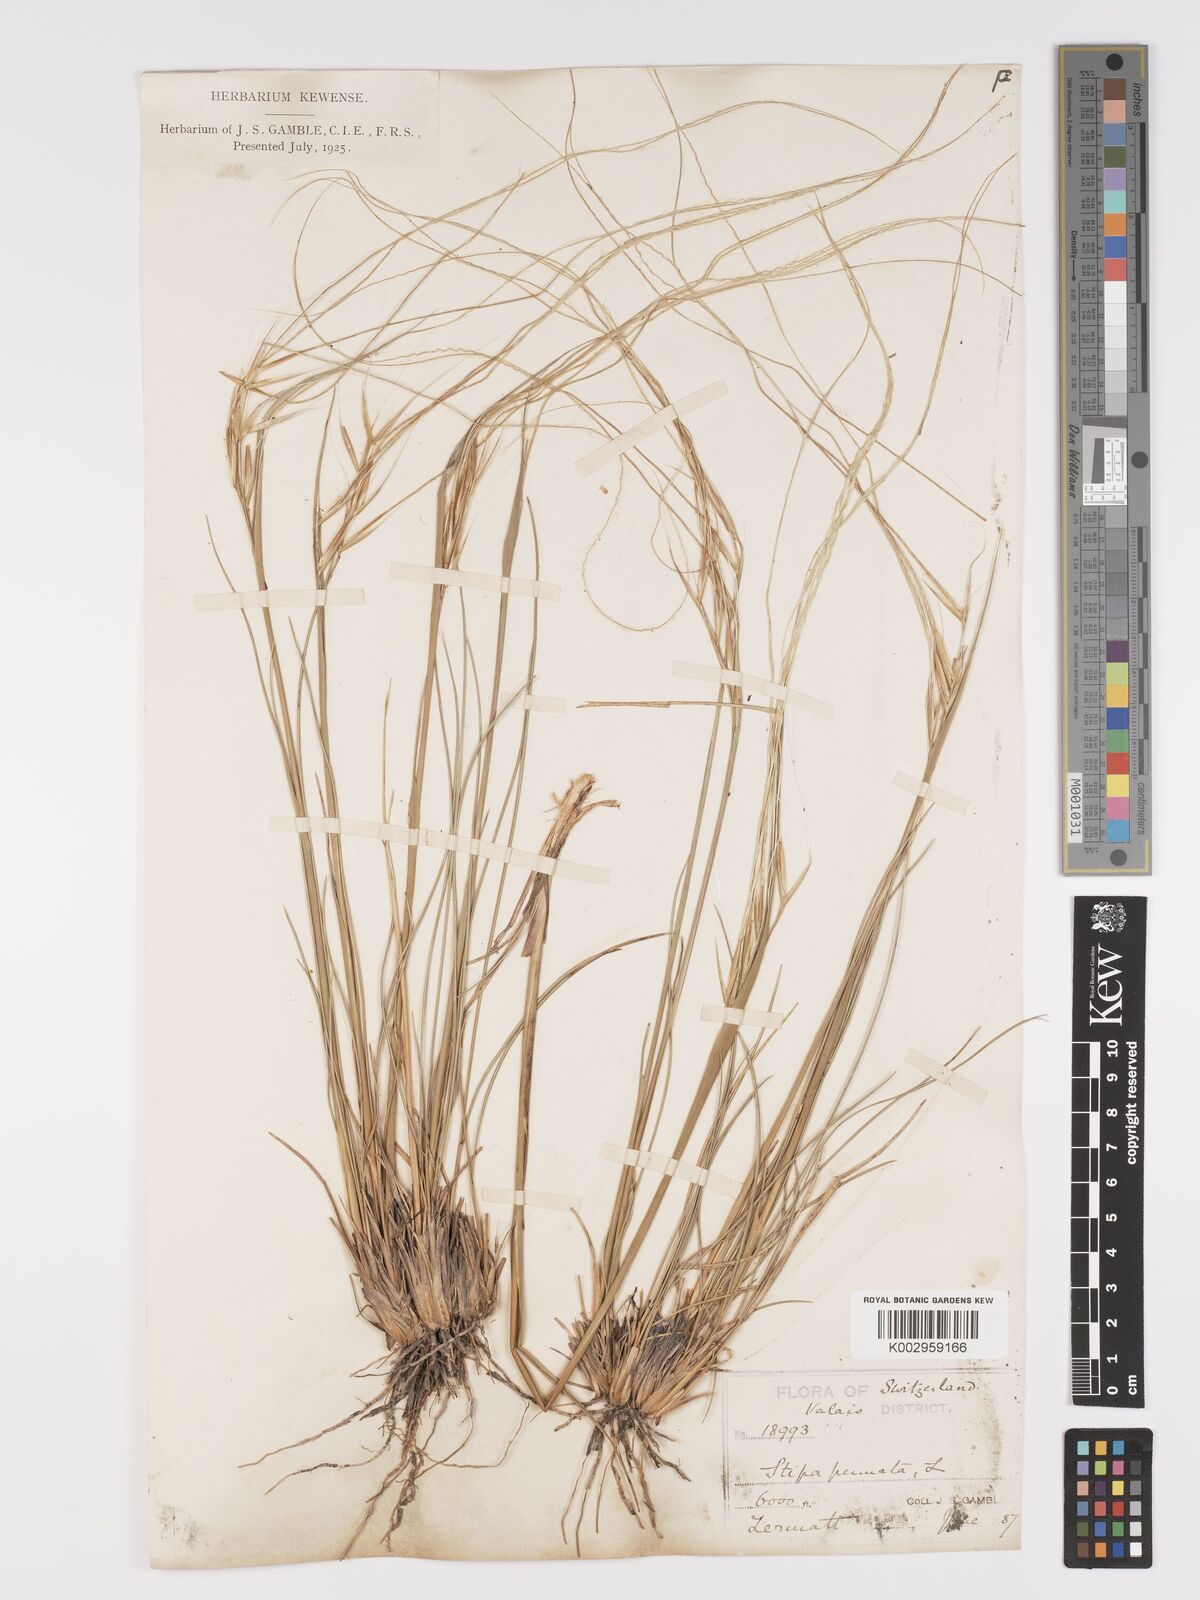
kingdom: Plantae
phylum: Tracheophyta
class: Liliopsida
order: Poales
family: Poaceae
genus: Stipa
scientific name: Stipa pennata
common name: European feather grass
